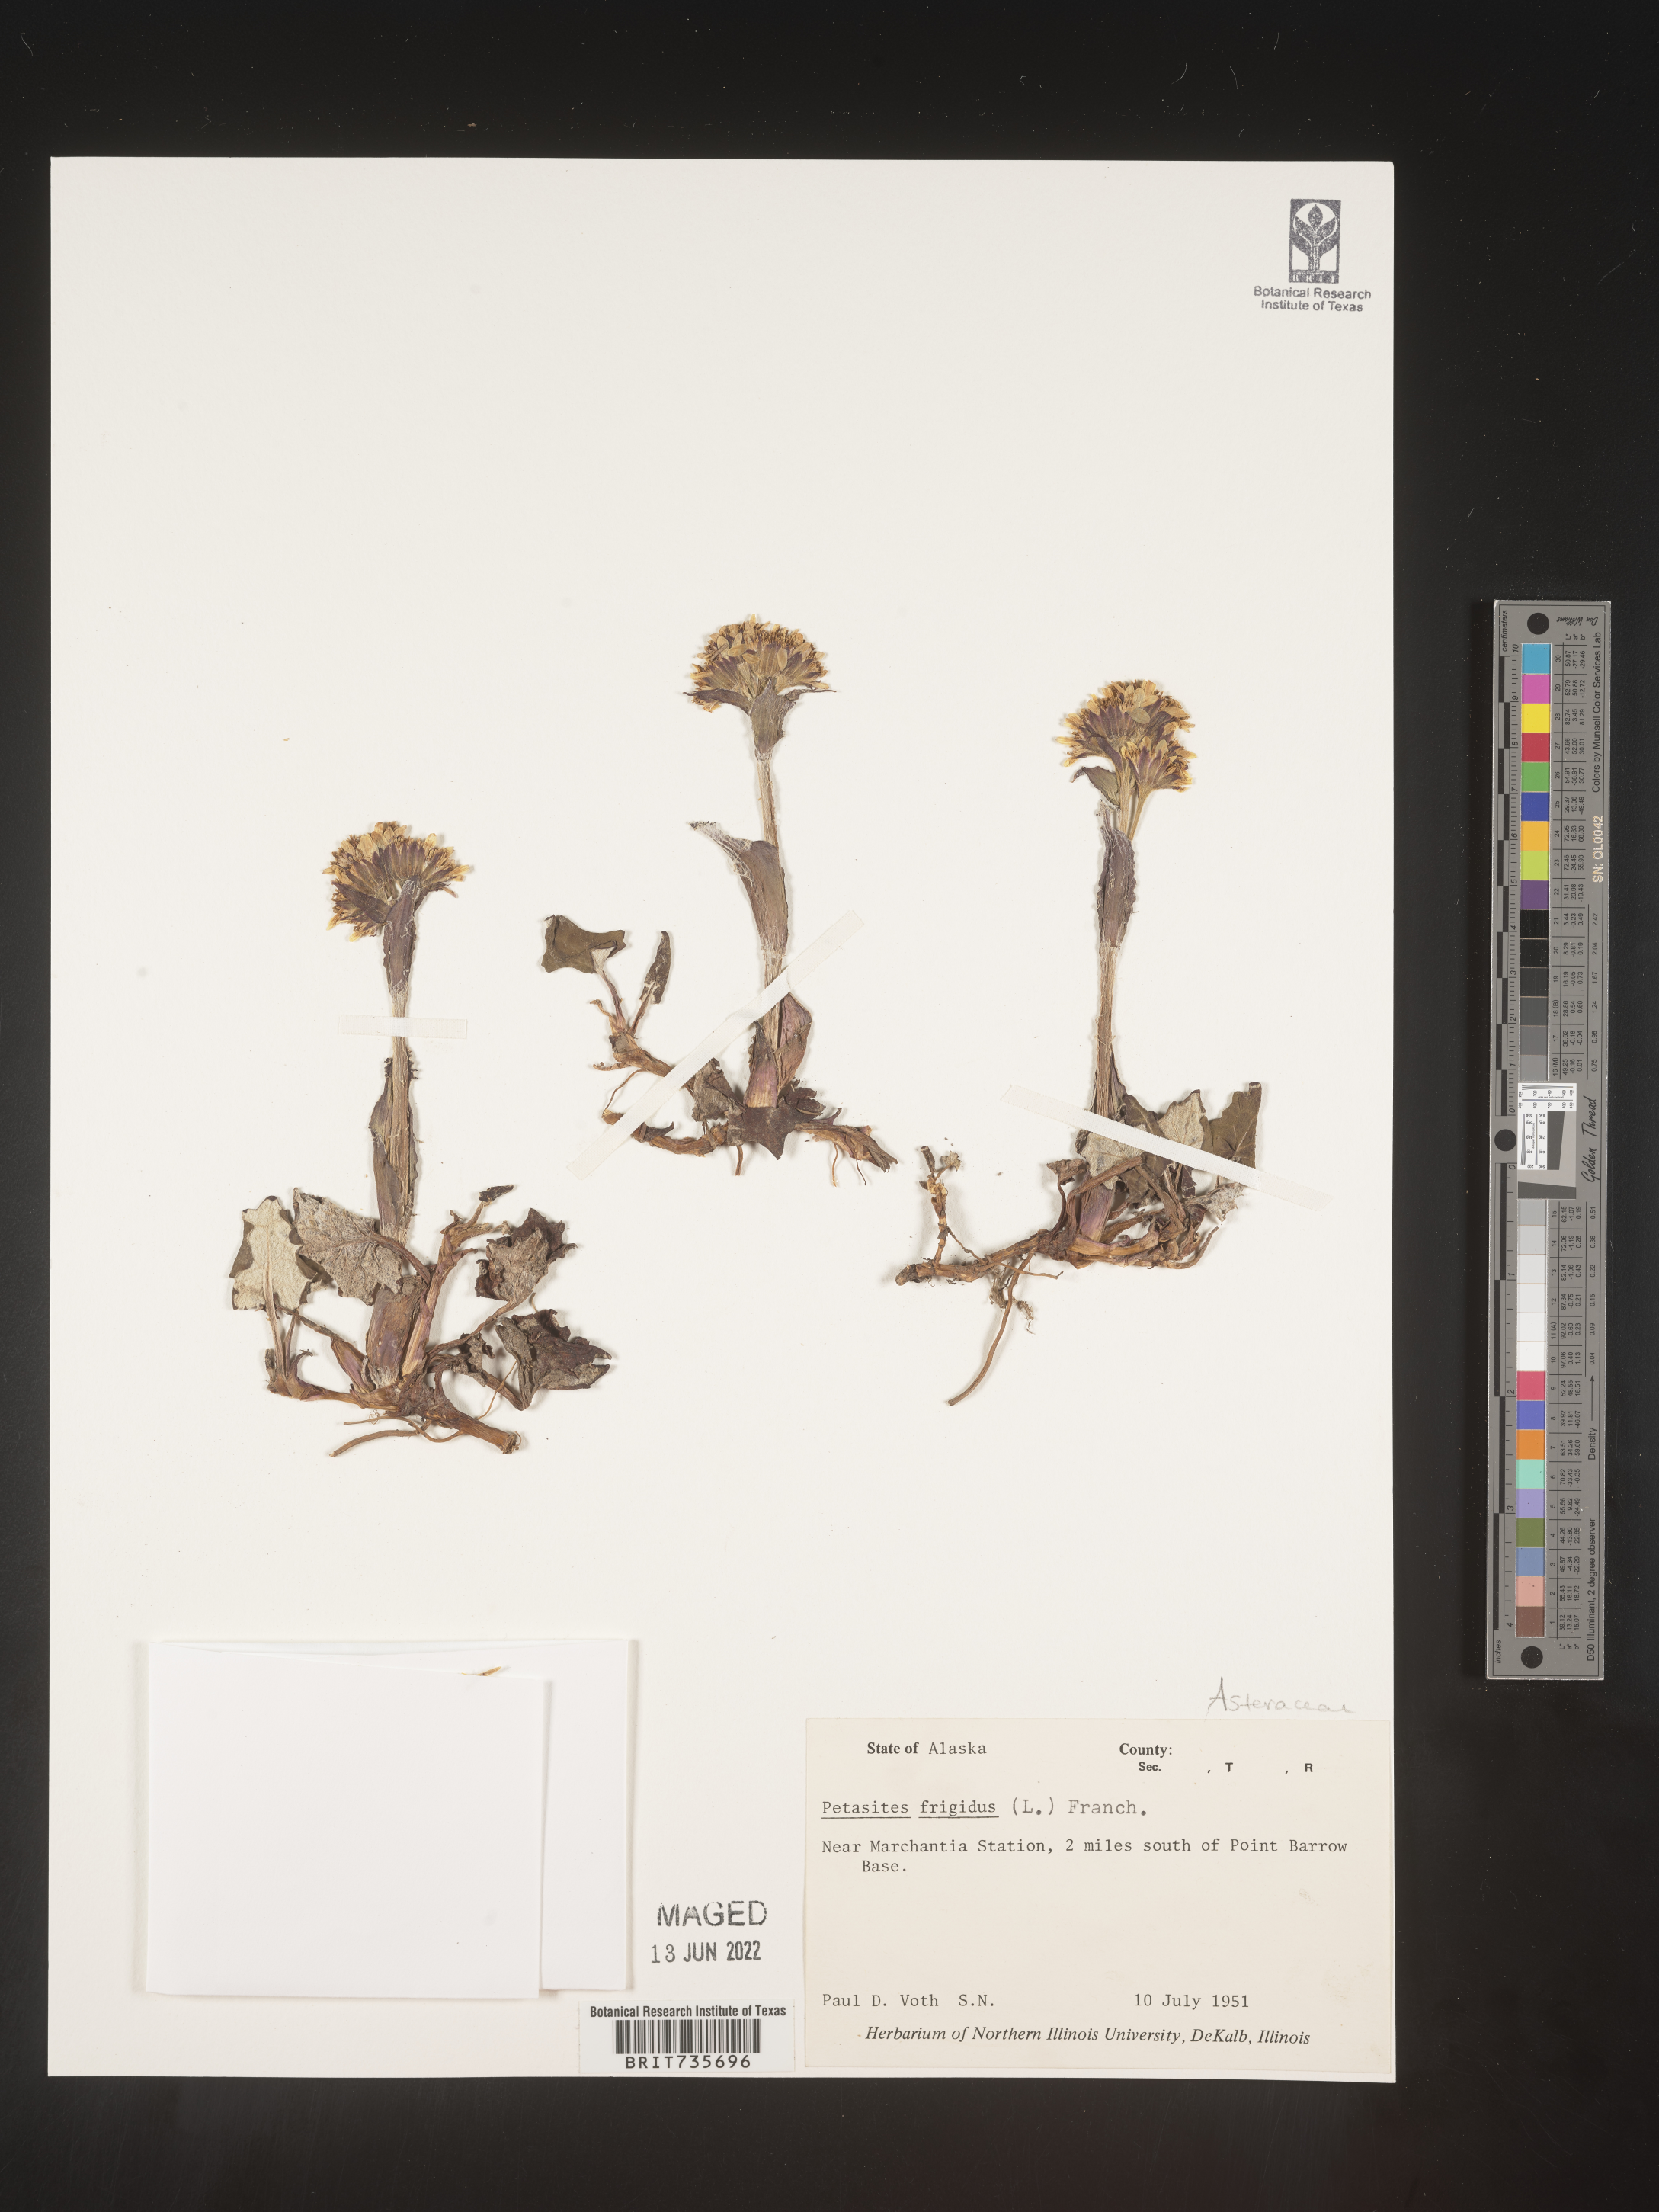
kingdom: Plantae
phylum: Tracheophyta
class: Magnoliopsida
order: Asterales
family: Asteraceae
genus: Petasites
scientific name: Petasites frigidus
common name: Arctic butterbur
